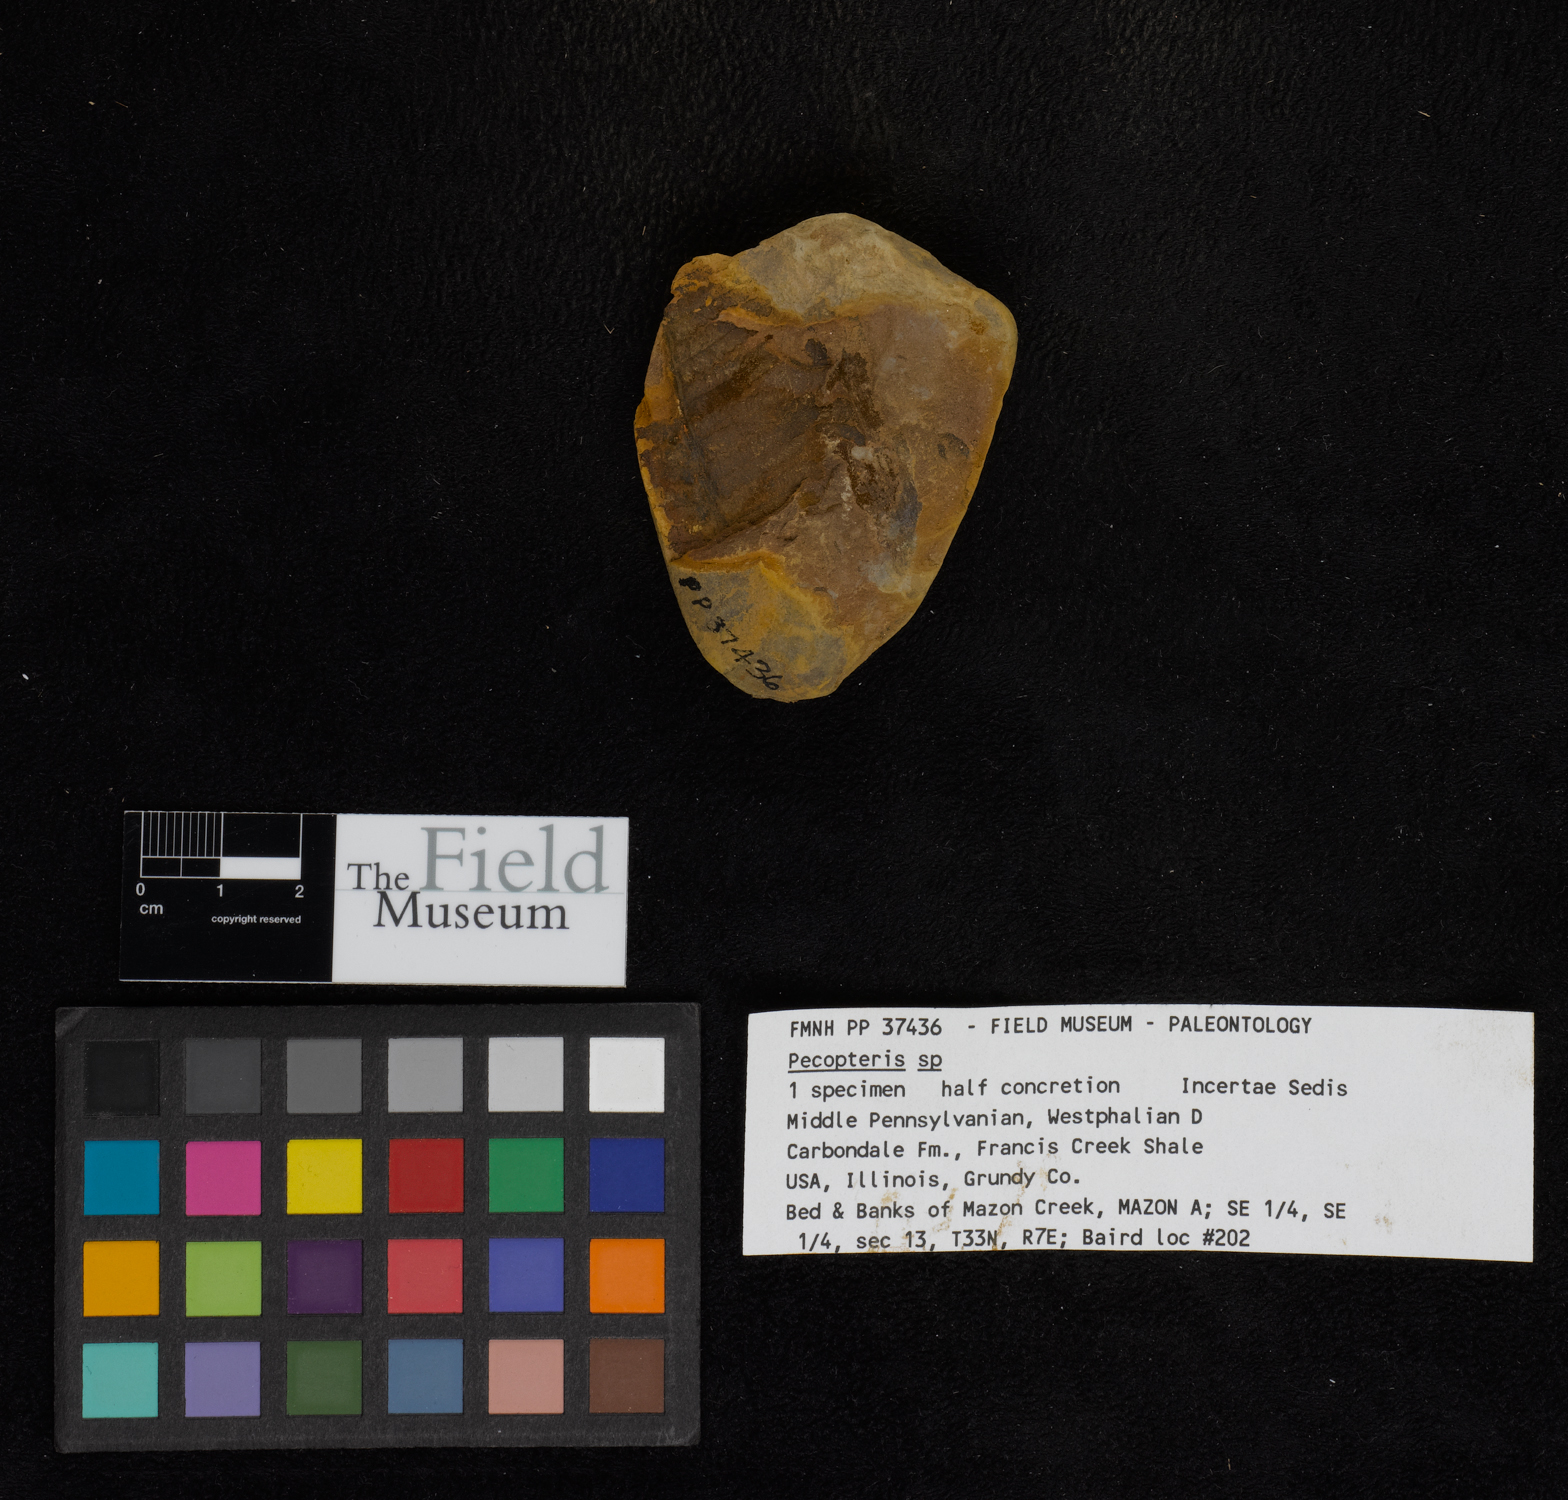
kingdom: Plantae
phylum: Tracheophyta
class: Polypodiopsida
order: Marattiales
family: Asterothecaceae
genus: Pecopteris
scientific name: Pecopteris
